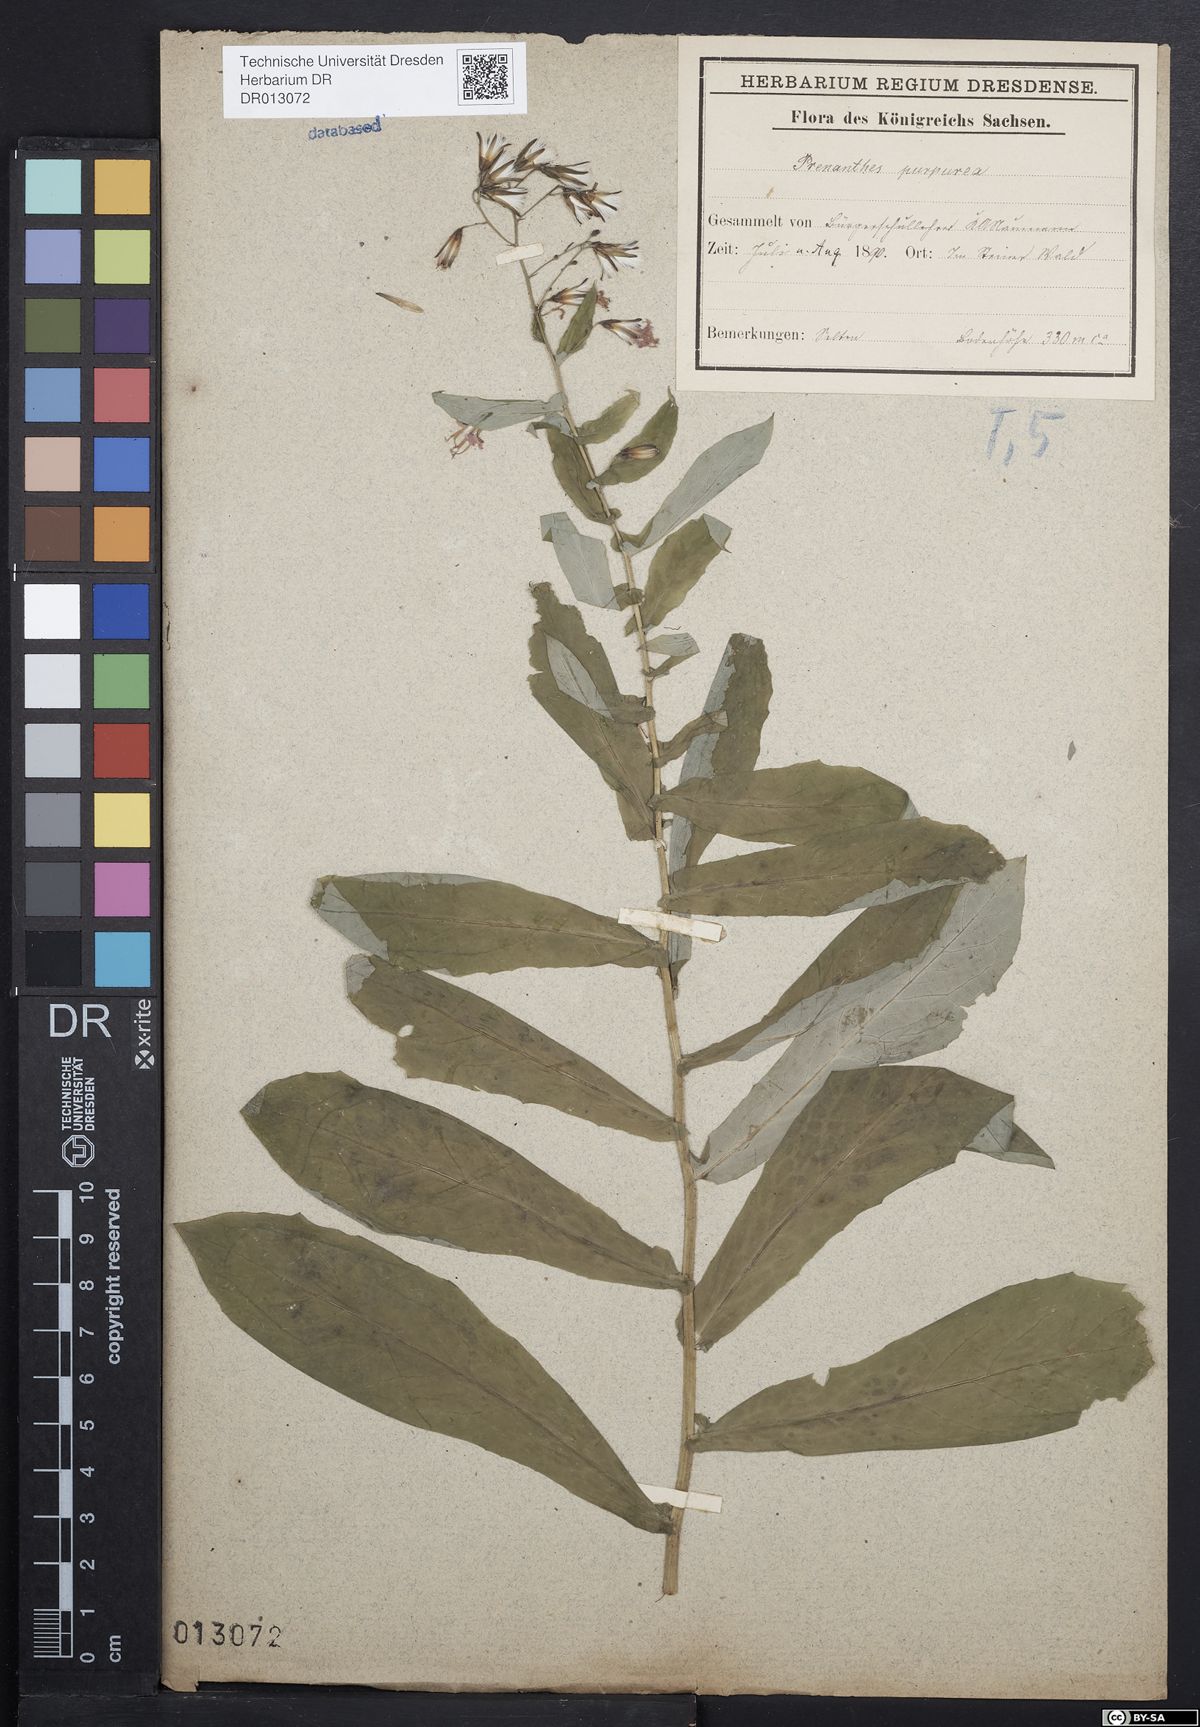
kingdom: Plantae
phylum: Tracheophyta
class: Magnoliopsida
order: Asterales
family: Asteraceae
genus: Prenanthes
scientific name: Prenanthes purpurea
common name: Purple lettuce
